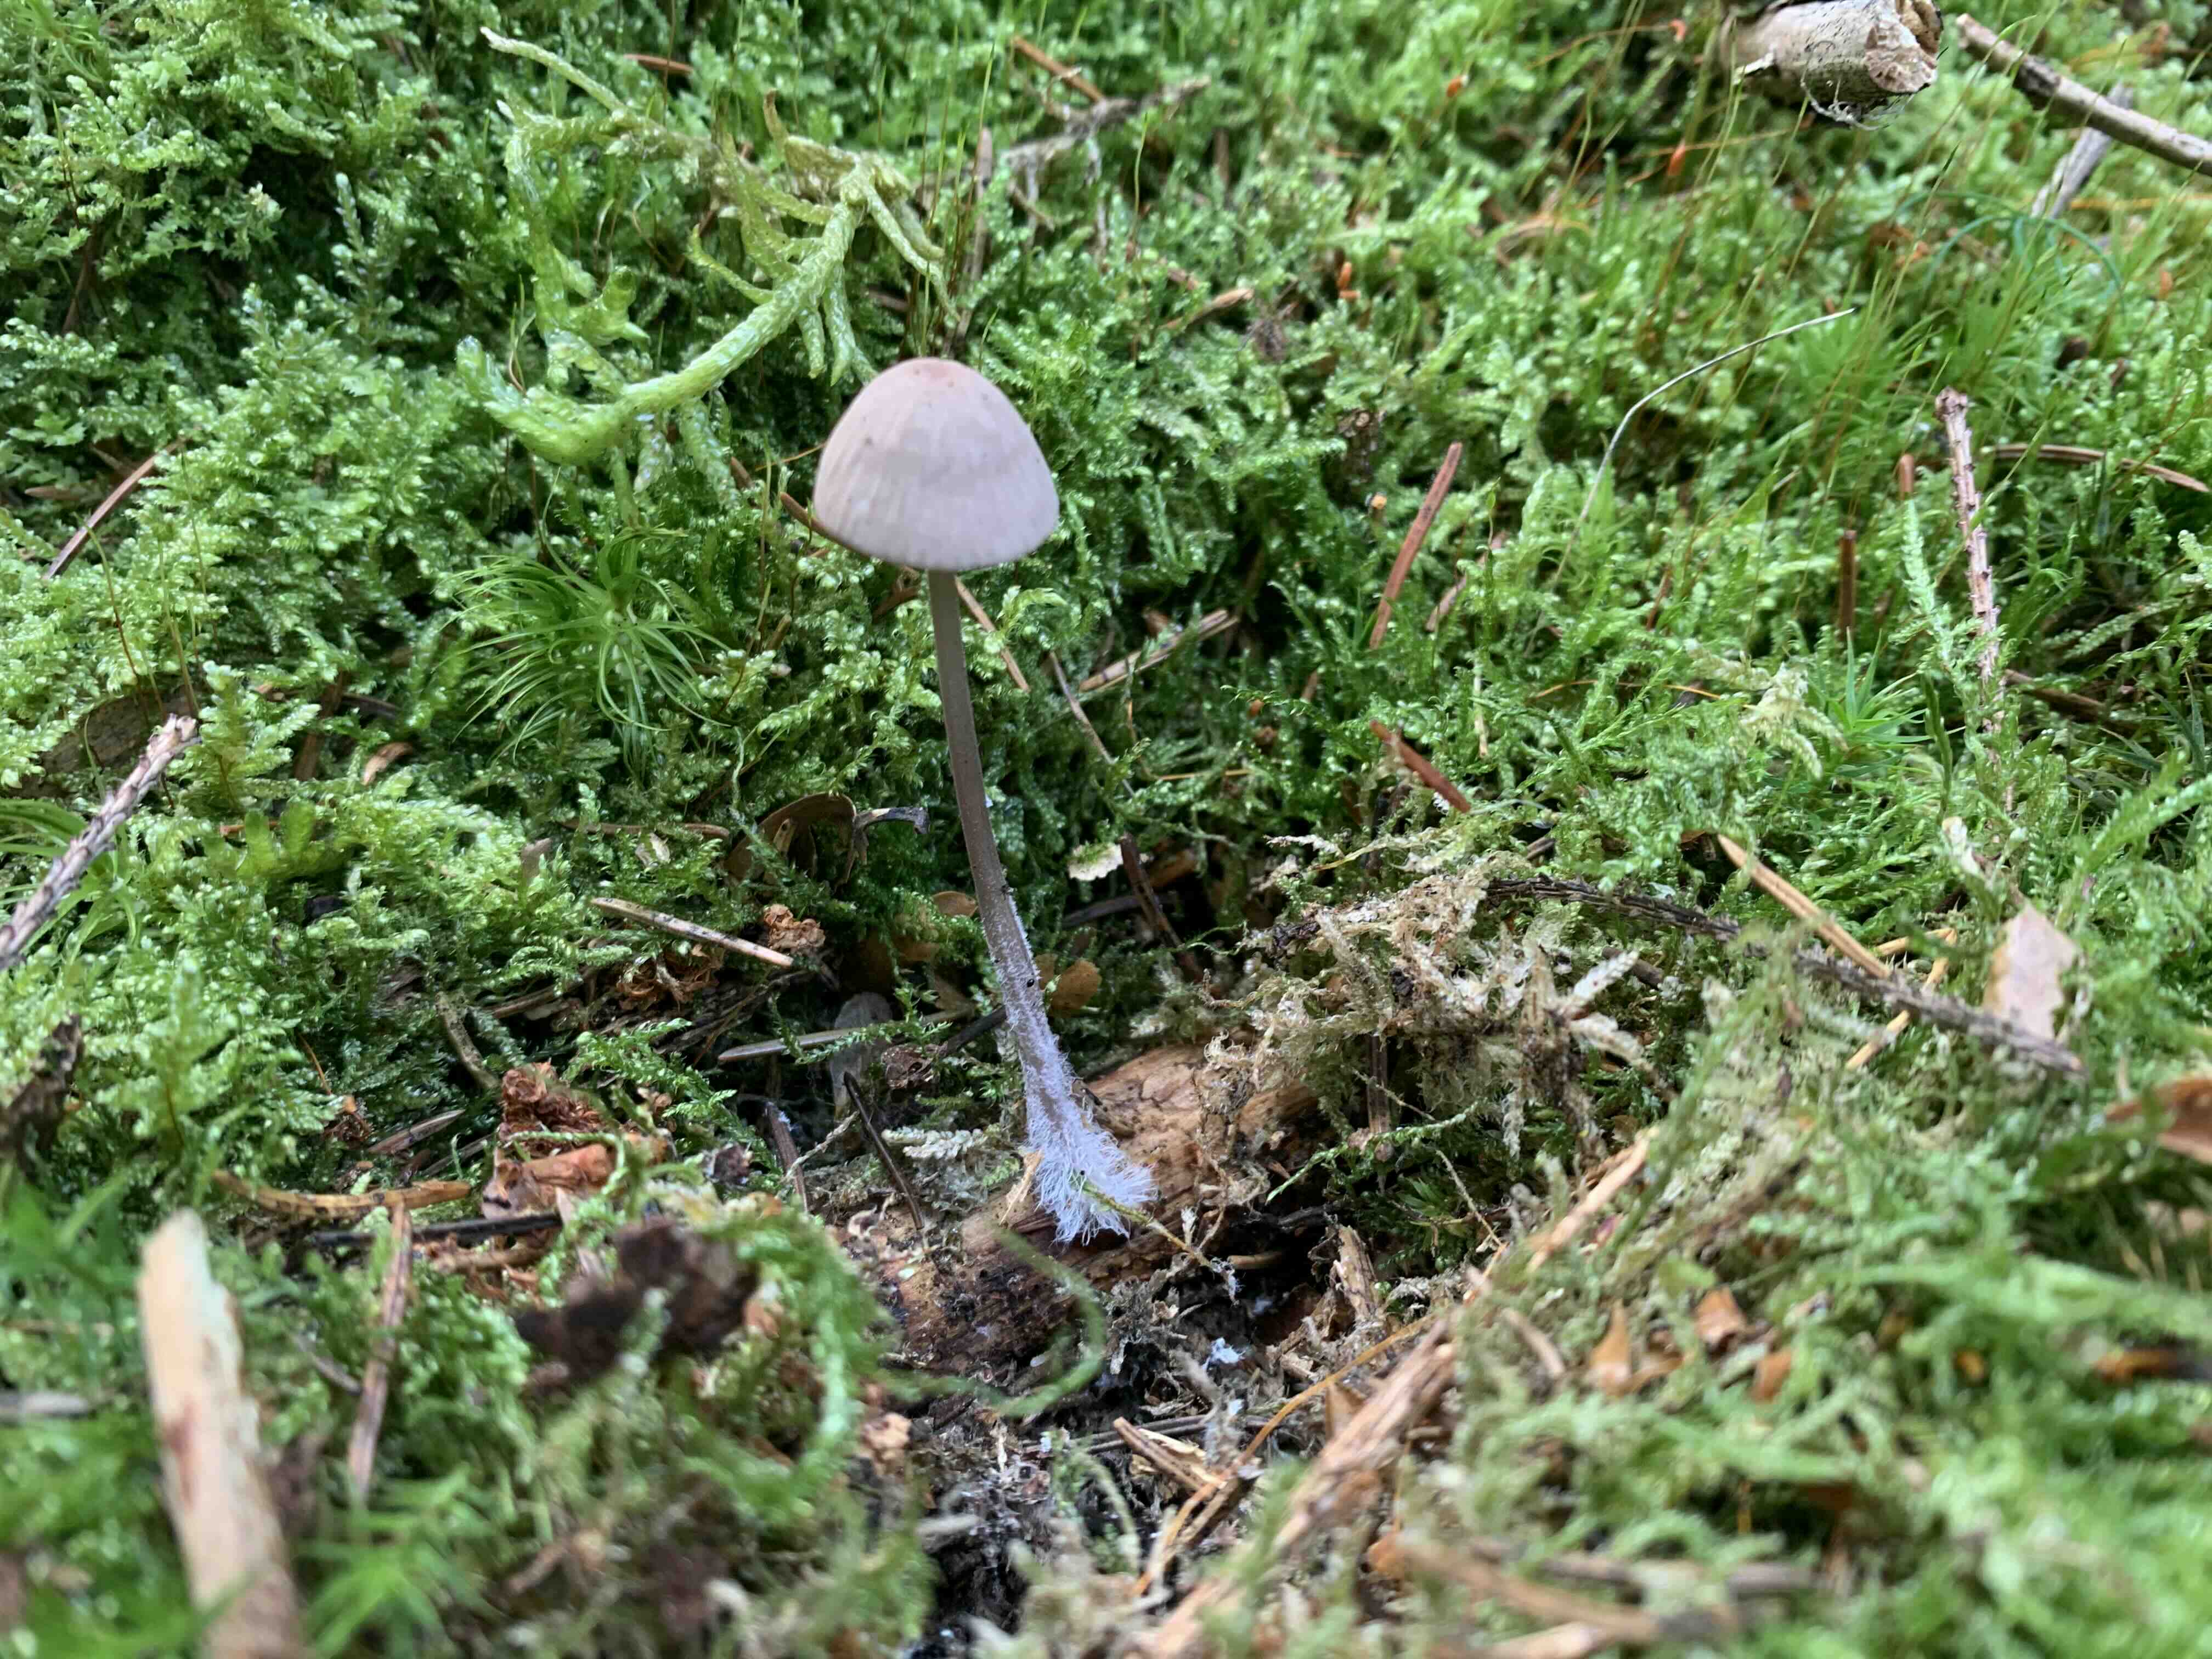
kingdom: Fungi
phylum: Basidiomycota
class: Agaricomycetes
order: Agaricales
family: Mycenaceae
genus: Mycena
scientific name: Mycena rubromarginata
